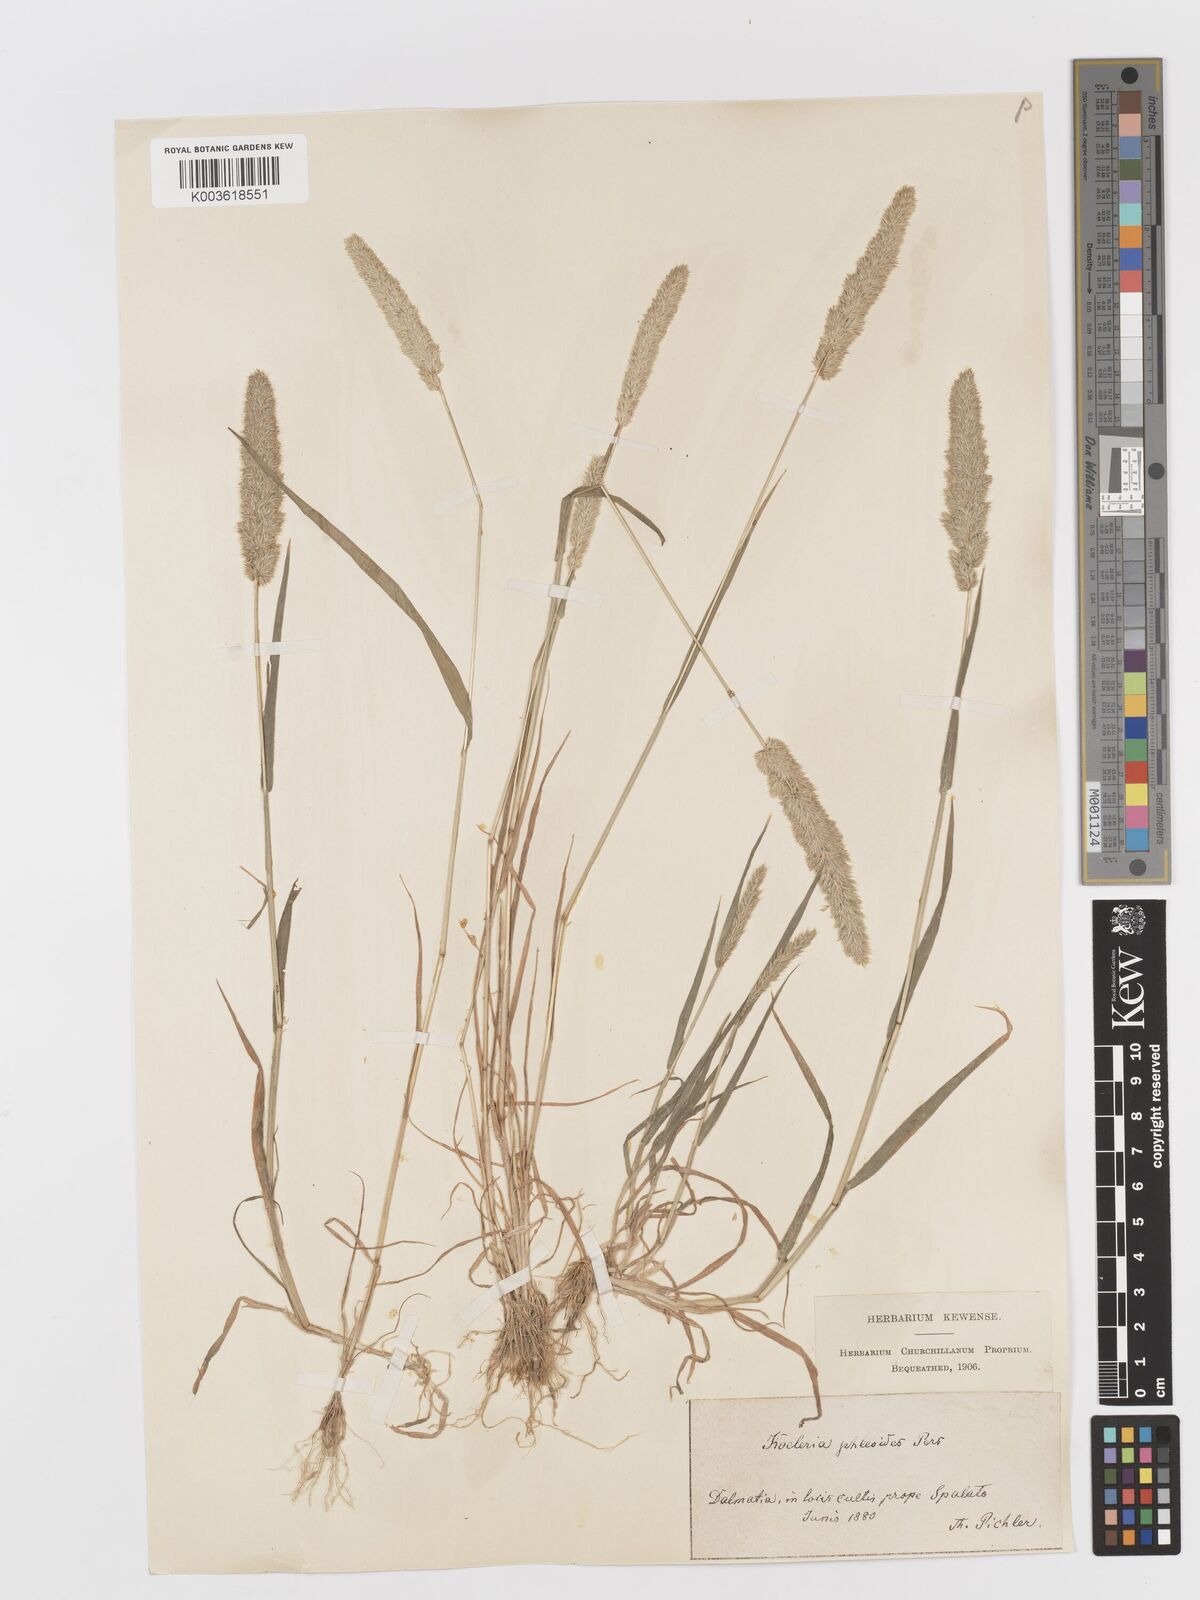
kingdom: Plantae
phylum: Tracheophyta
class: Liliopsida
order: Poales
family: Poaceae
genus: Rostraria
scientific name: Rostraria cristata
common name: Mediterranean hair-grass
